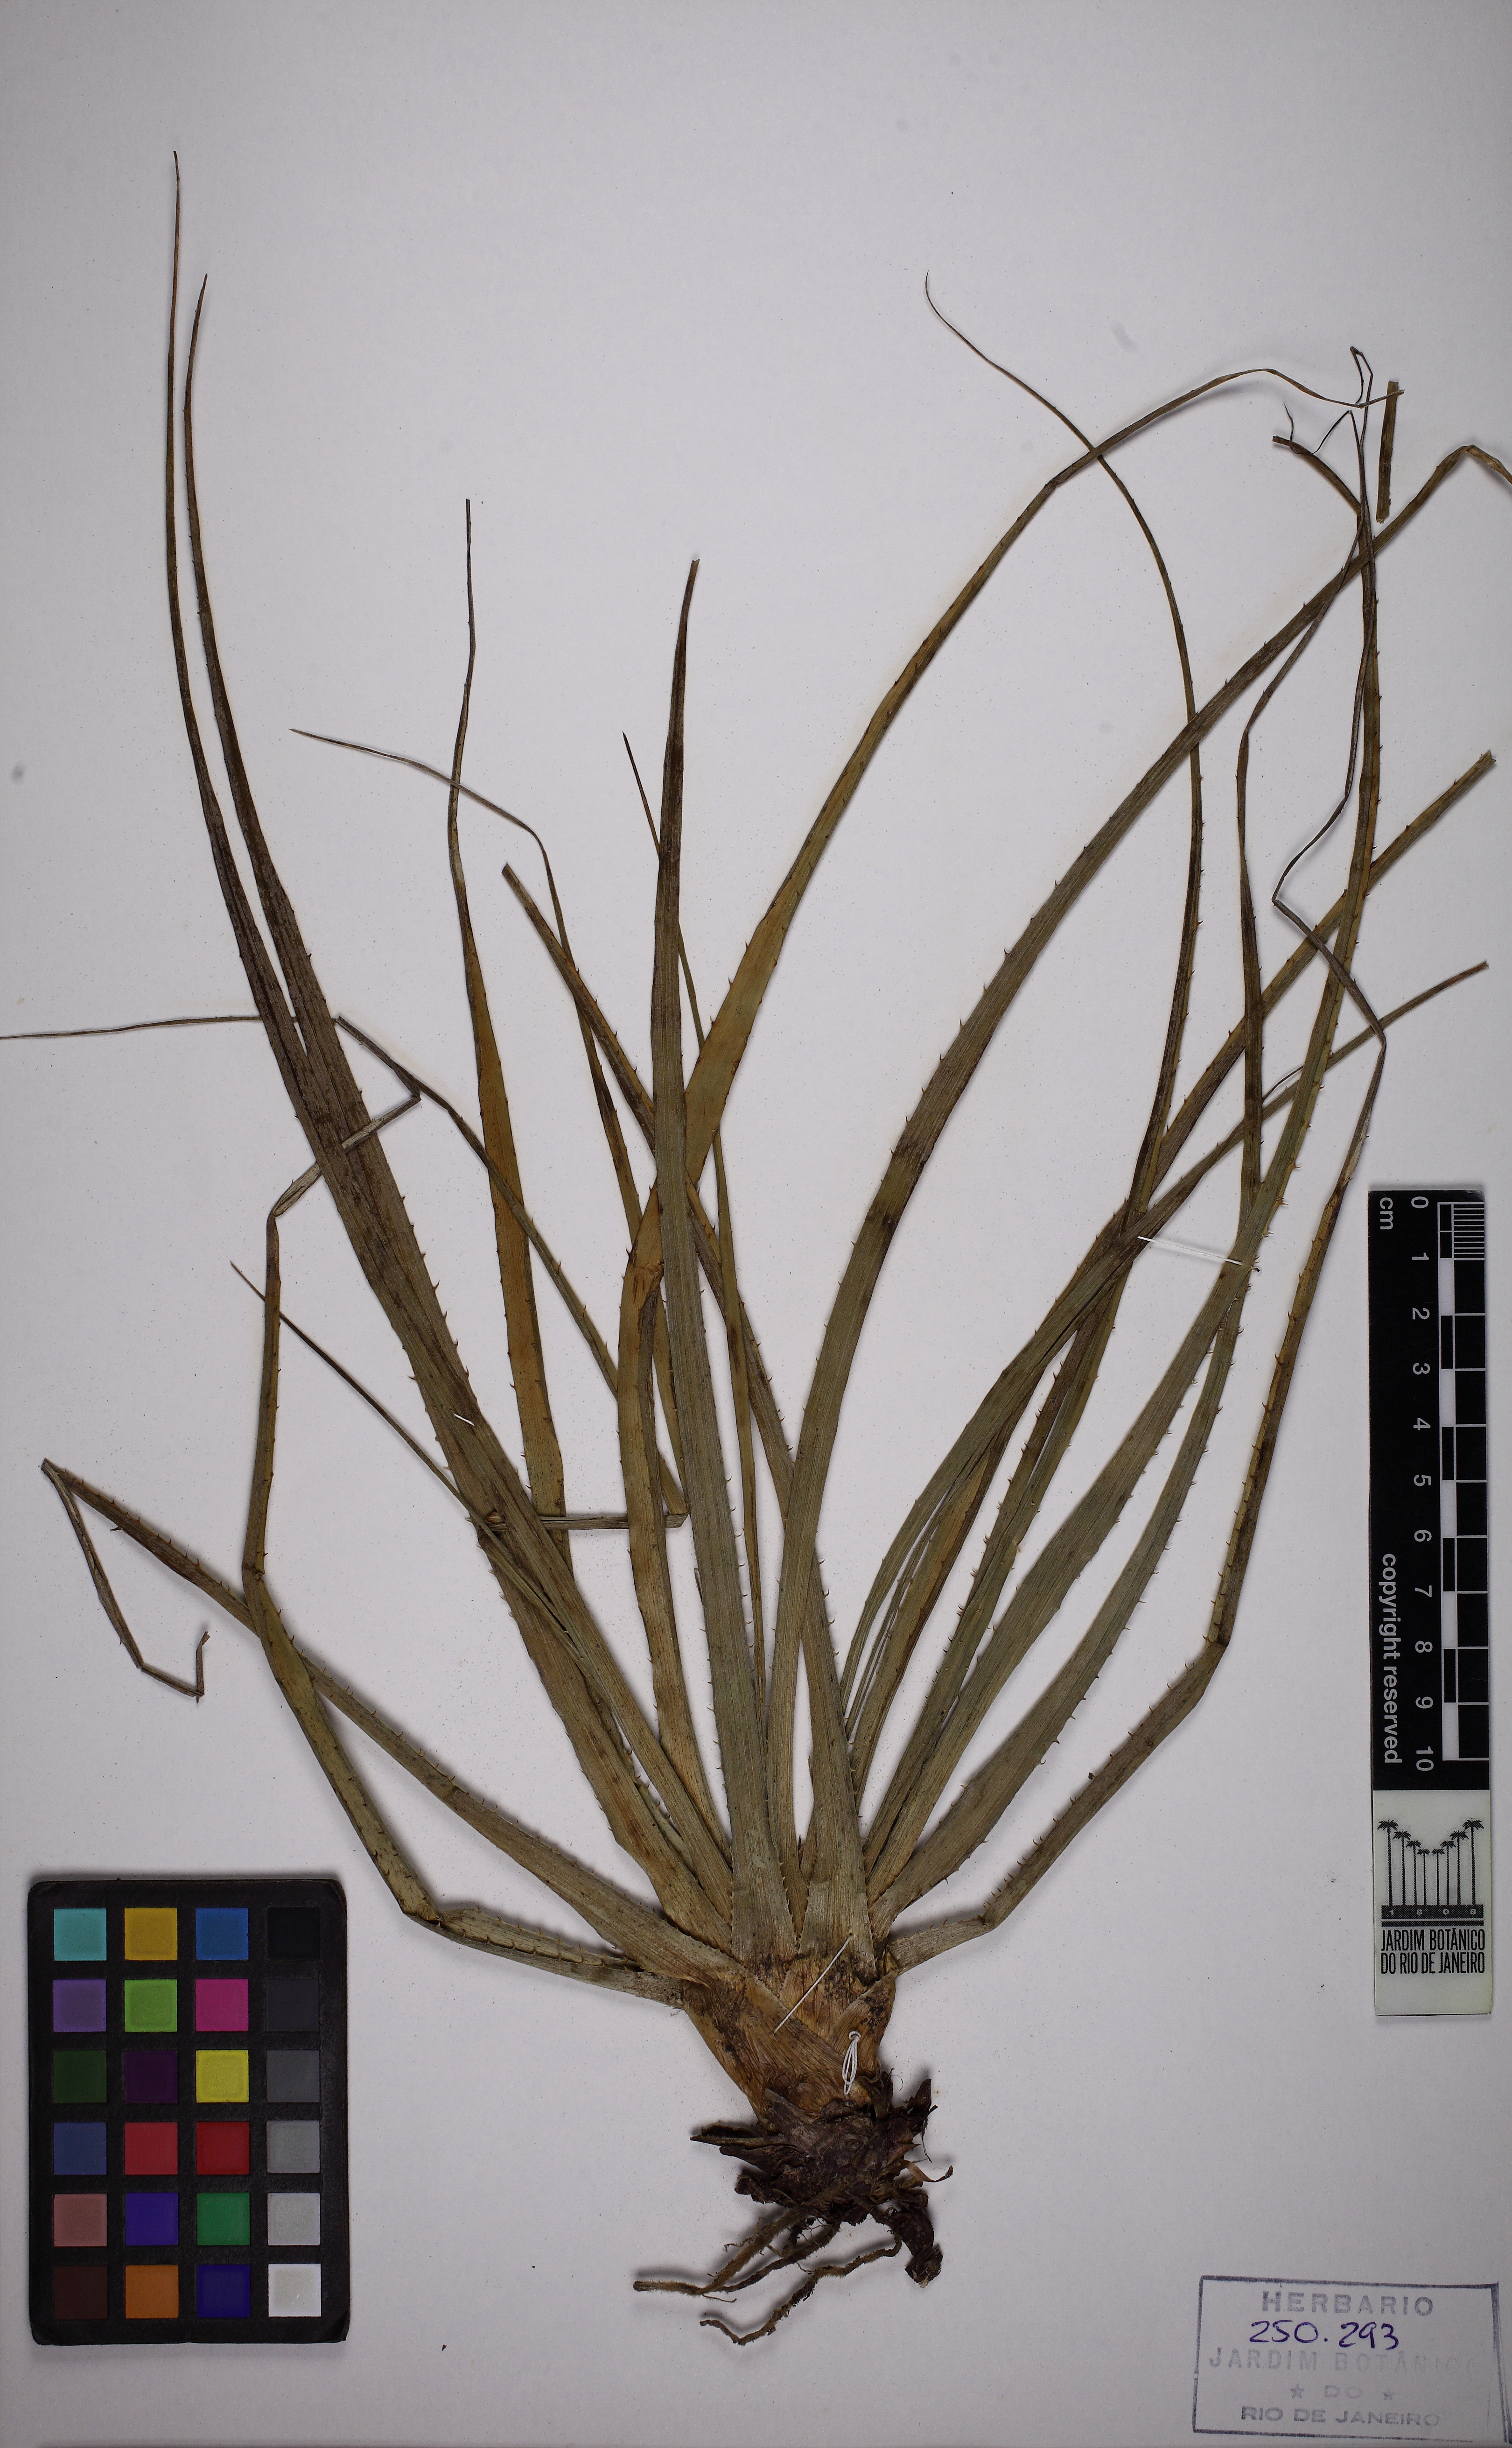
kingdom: Plantae
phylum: Tracheophyta
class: Liliopsida
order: Poales
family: Bromeliaceae
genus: Hoplocryptanthus
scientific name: Hoplocryptanthus schwackeanus
